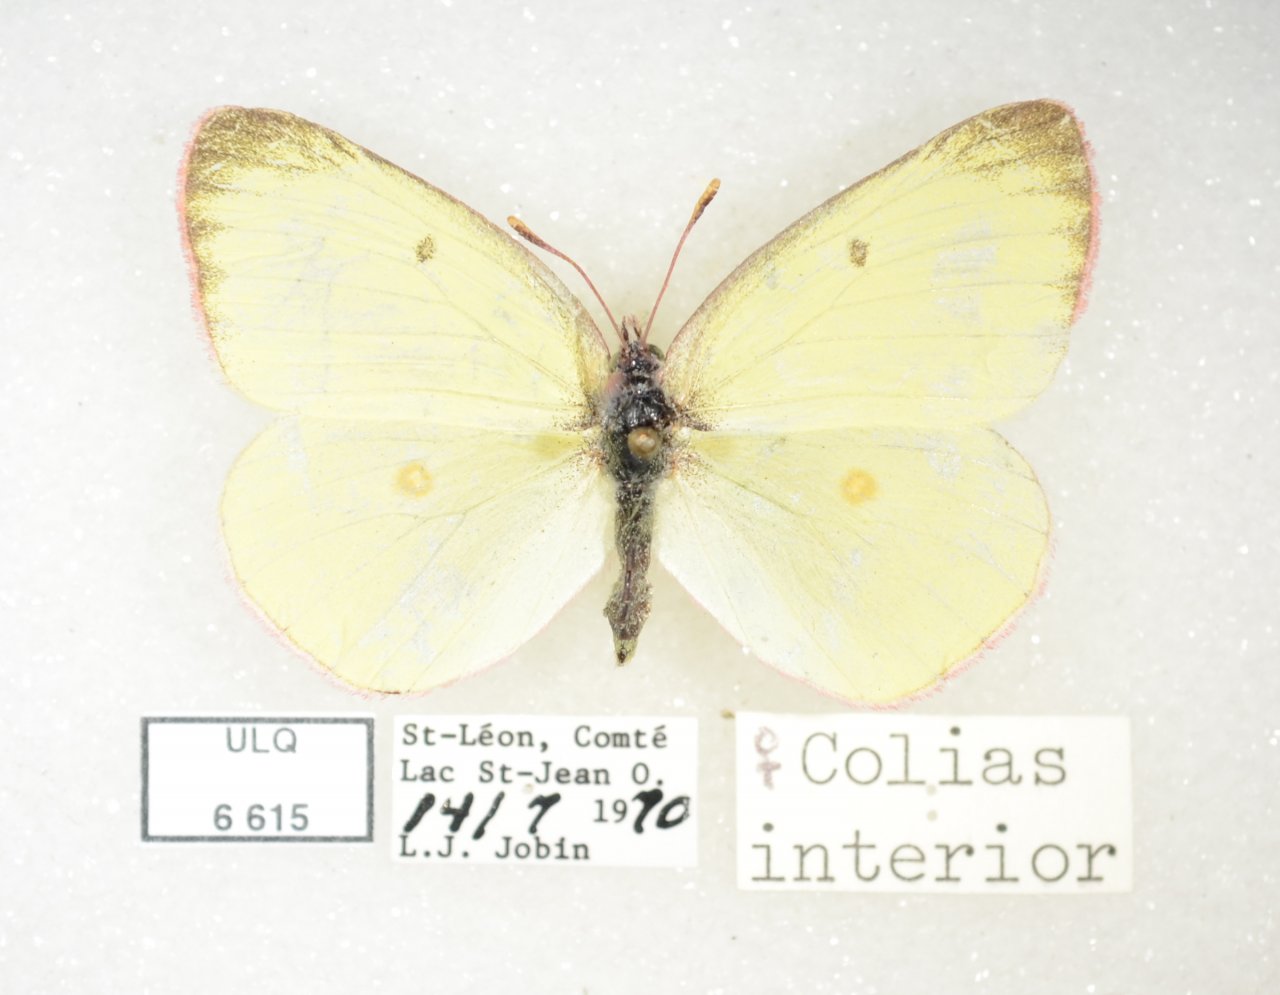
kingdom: Animalia
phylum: Arthropoda
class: Insecta
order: Lepidoptera
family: Pieridae
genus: Colias
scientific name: Colias interior
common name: Pink-edged Sulphur
